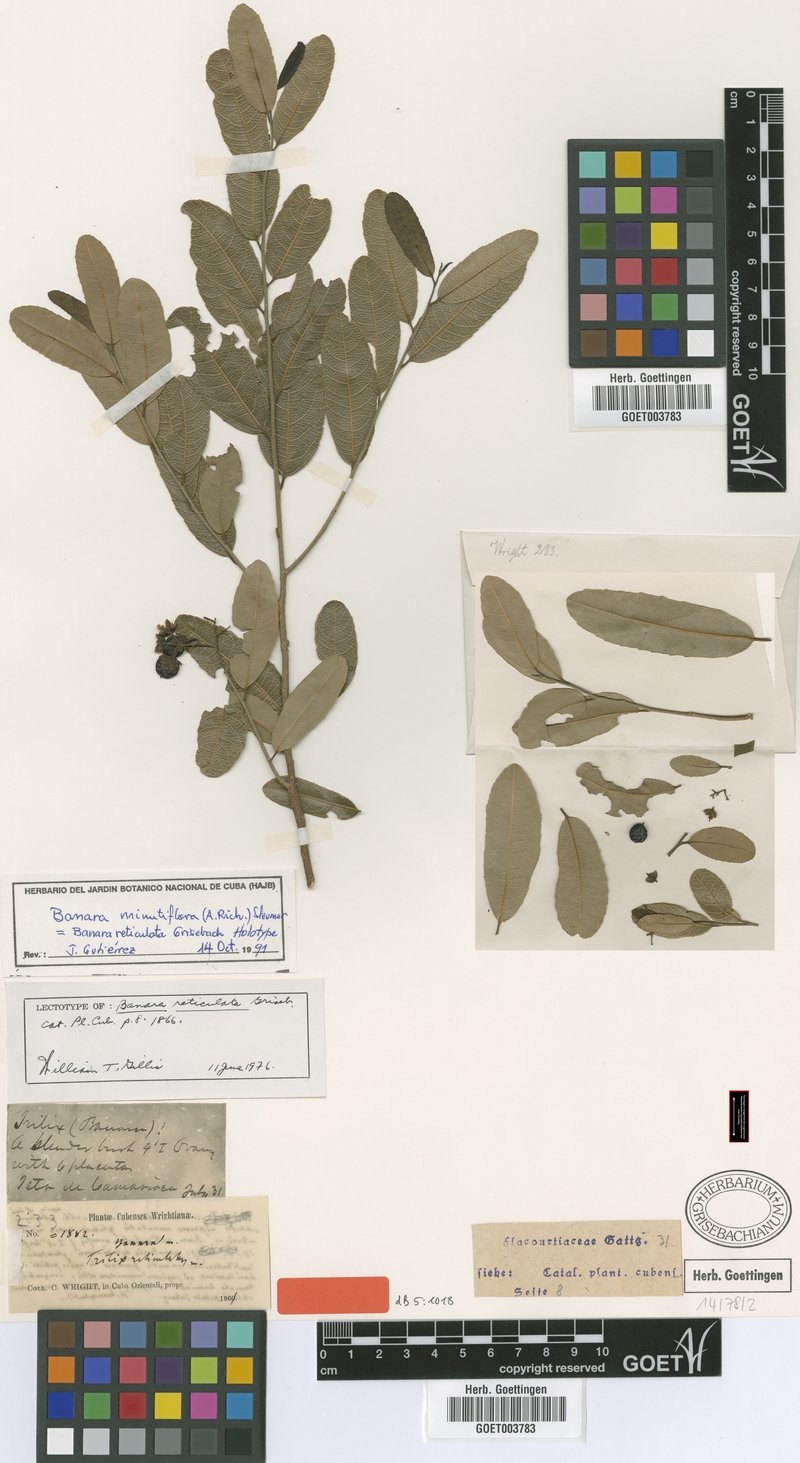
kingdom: Plantae
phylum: Tracheophyta
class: Magnoliopsida
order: Malpighiales
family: Salicaceae
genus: Banara
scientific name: Banara minutiflora
